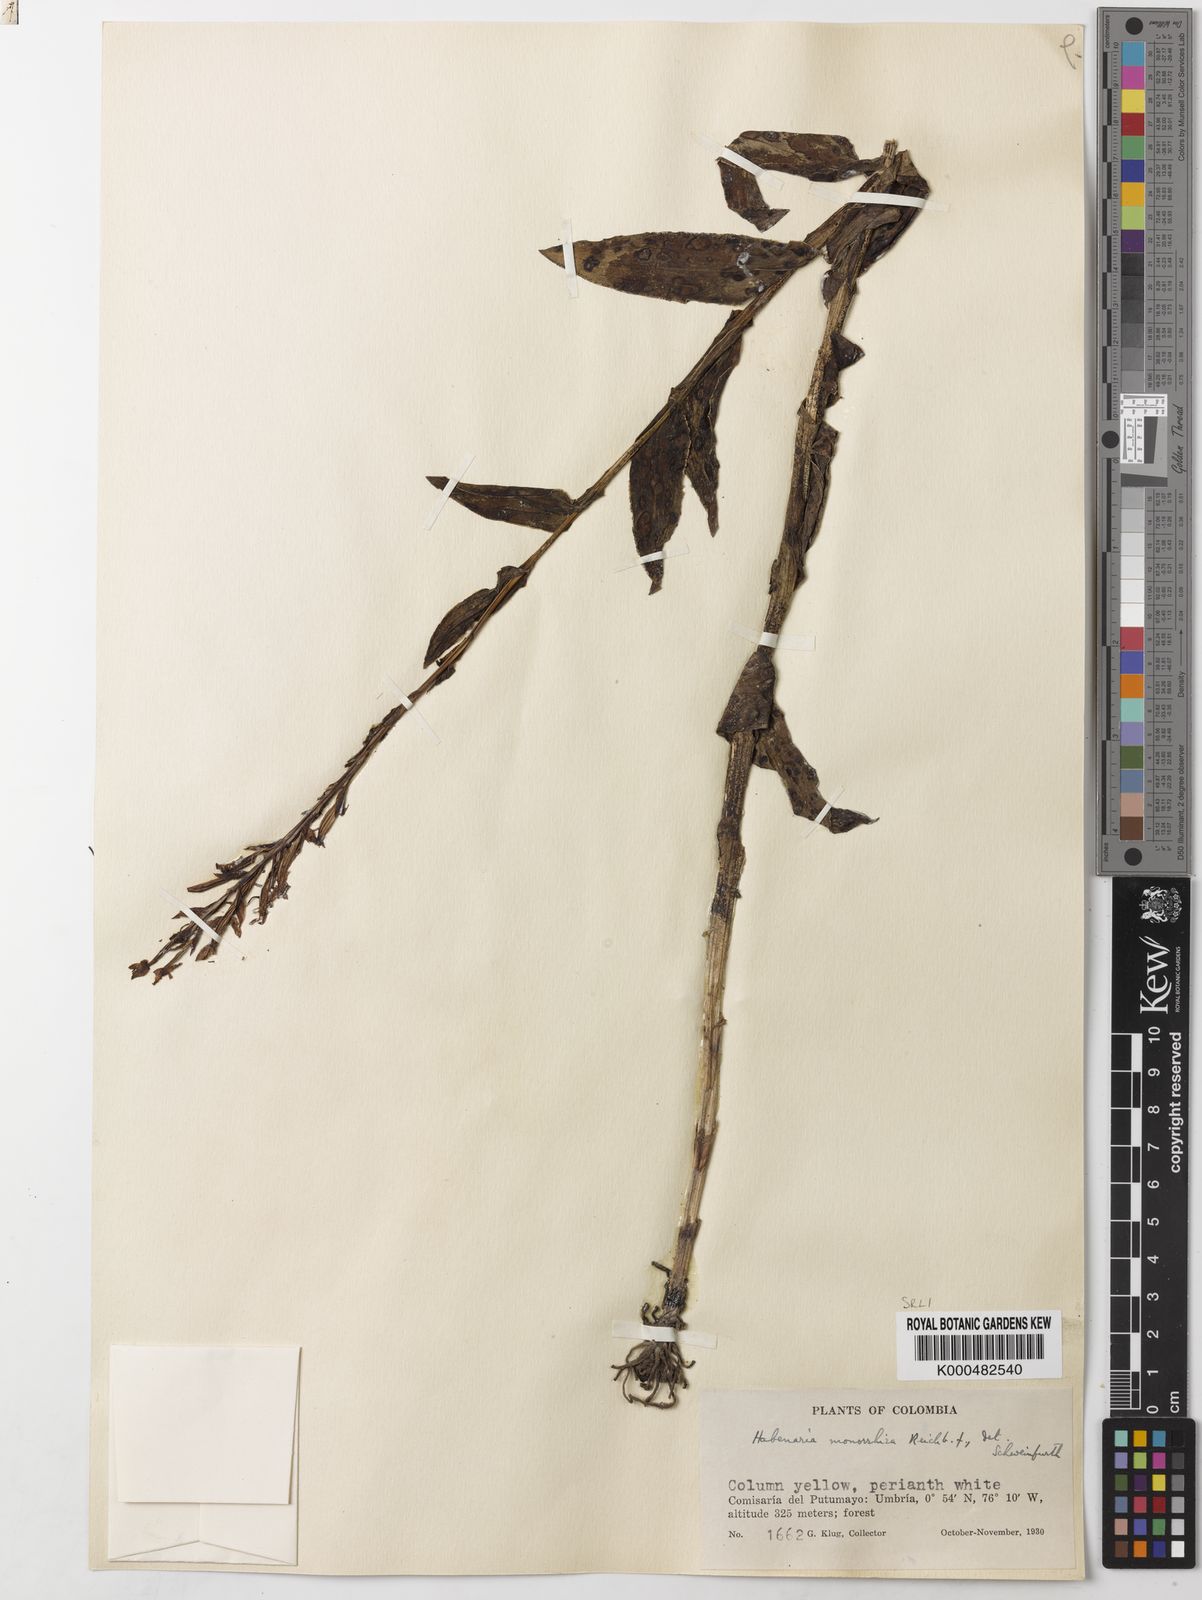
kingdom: Plantae
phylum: Tracheophyta
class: Liliopsida
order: Asparagales
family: Orchidaceae
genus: Habenaria
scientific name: Habenaria monorrhiza
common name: Tropical bog orchid
